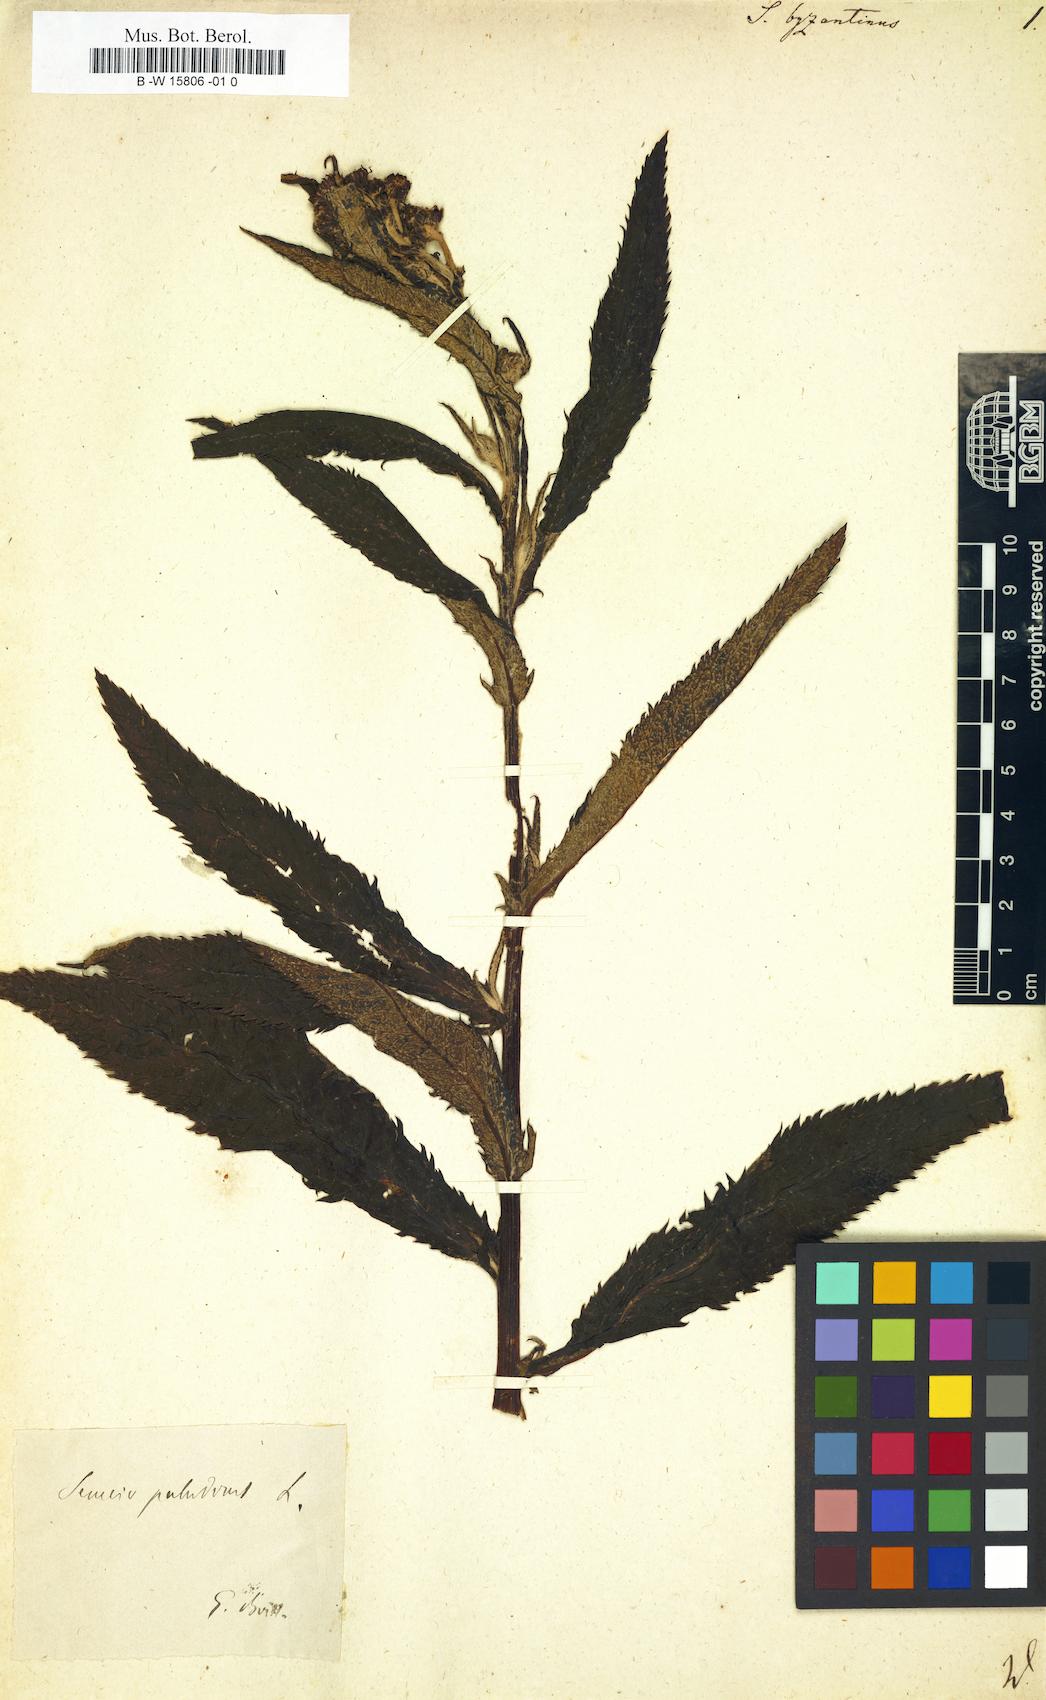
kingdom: Plantae
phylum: Tracheophyta
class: Magnoliopsida
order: Asterales
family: Asteraceae
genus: Senecio
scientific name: Senecio byzantinus
